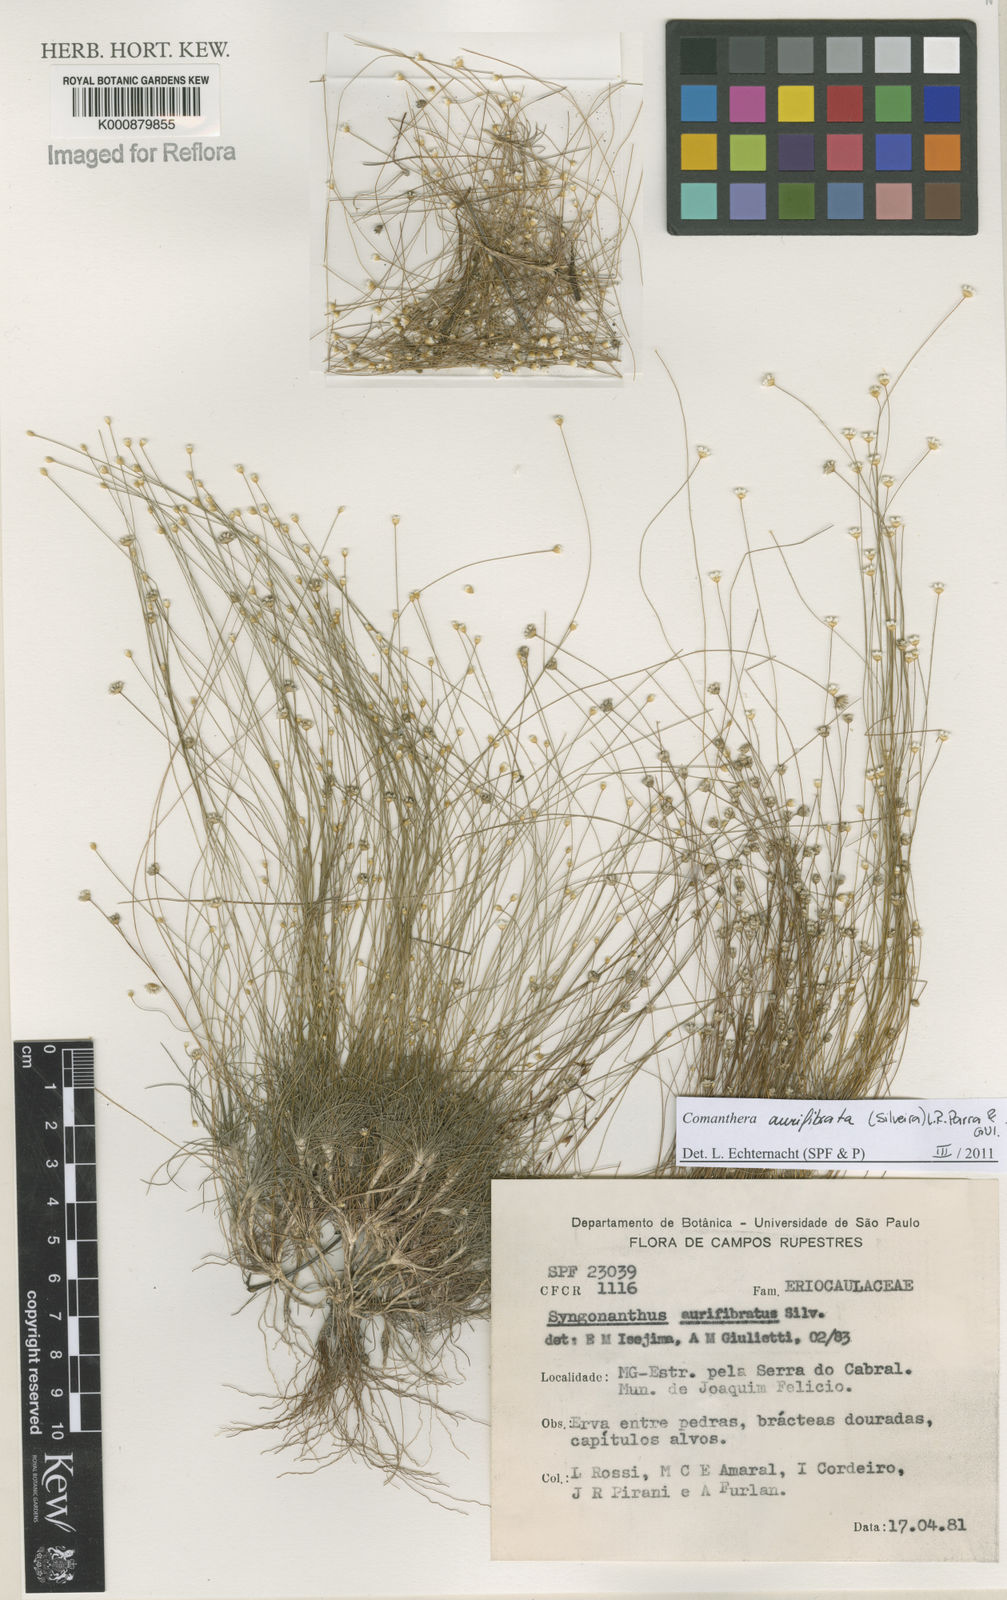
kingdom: Plantae
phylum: Tracheophyta
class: Liliopsida
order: Poales
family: Eriocaulaceae
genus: Comanthera
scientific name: Comanthera aurifibrata
